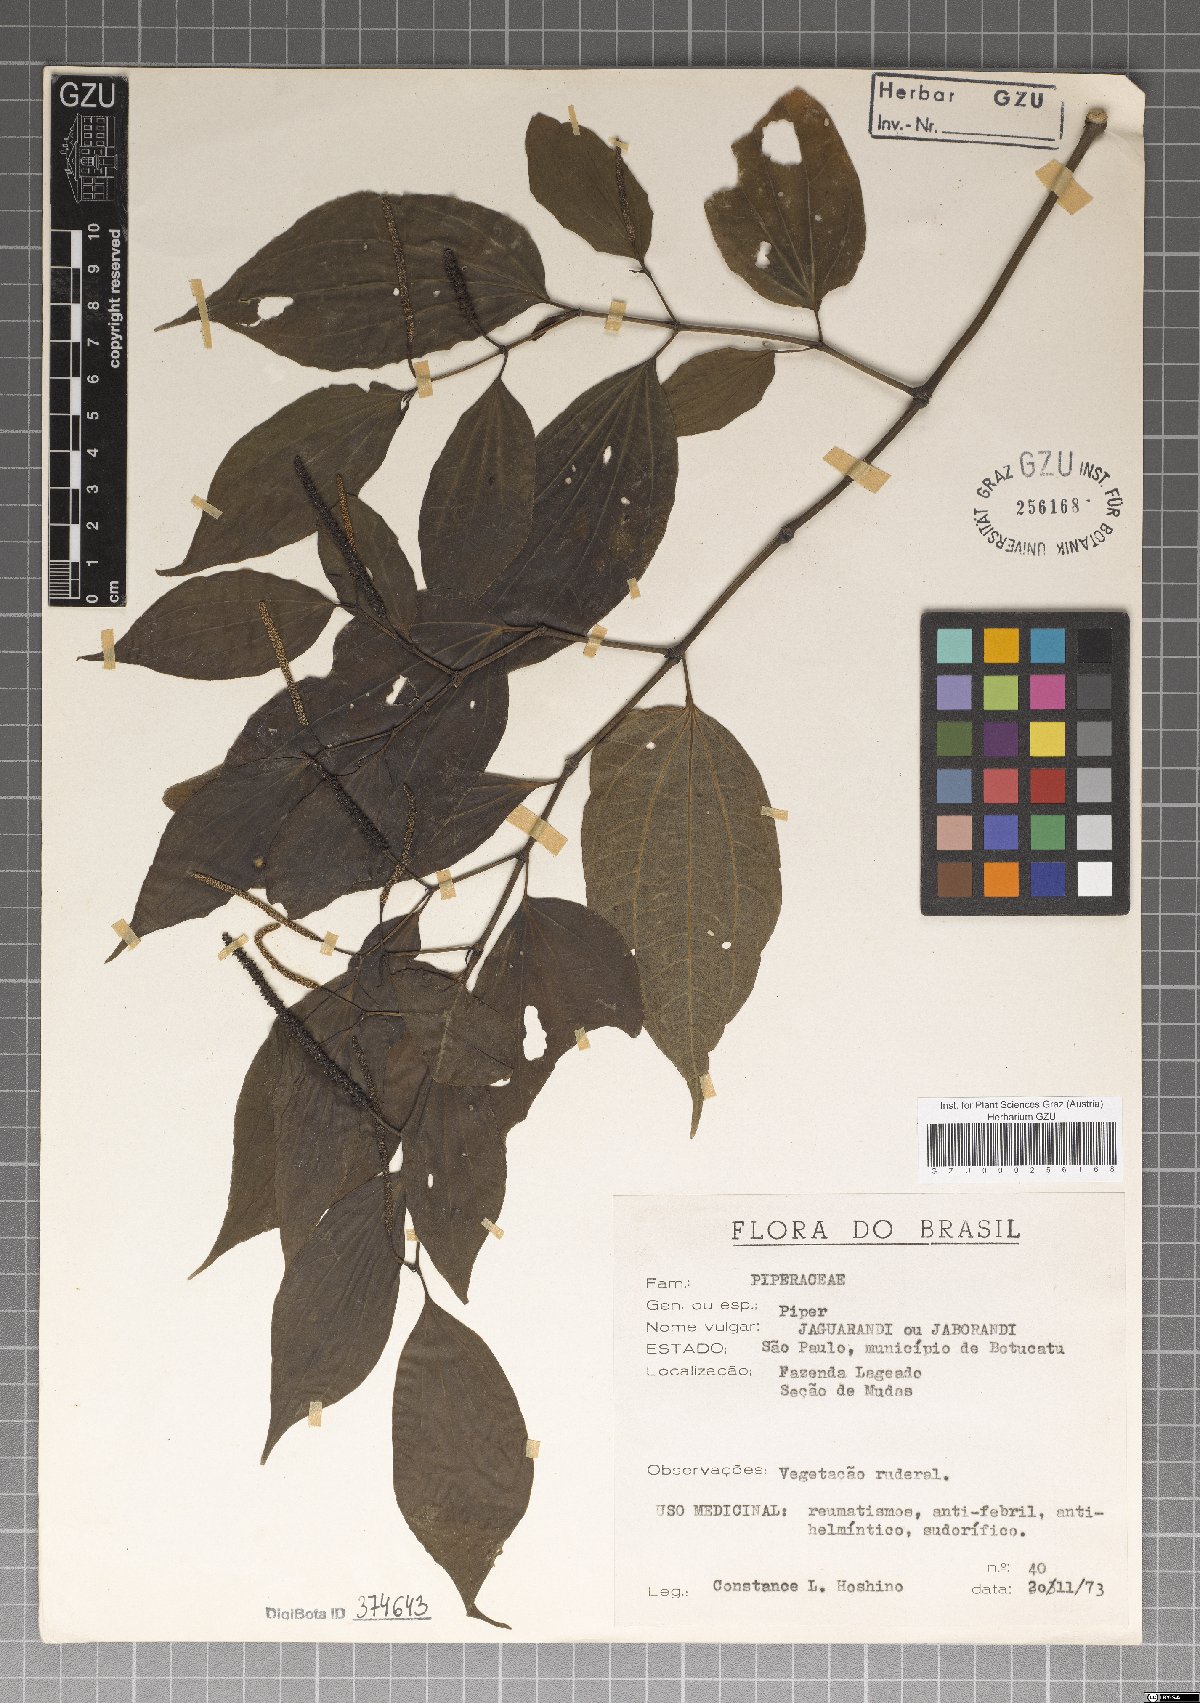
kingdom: Plantae
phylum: Tracheophyta
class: Magnoliopsida
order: Piperales
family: Piperaceae
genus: Piper
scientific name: Piper
